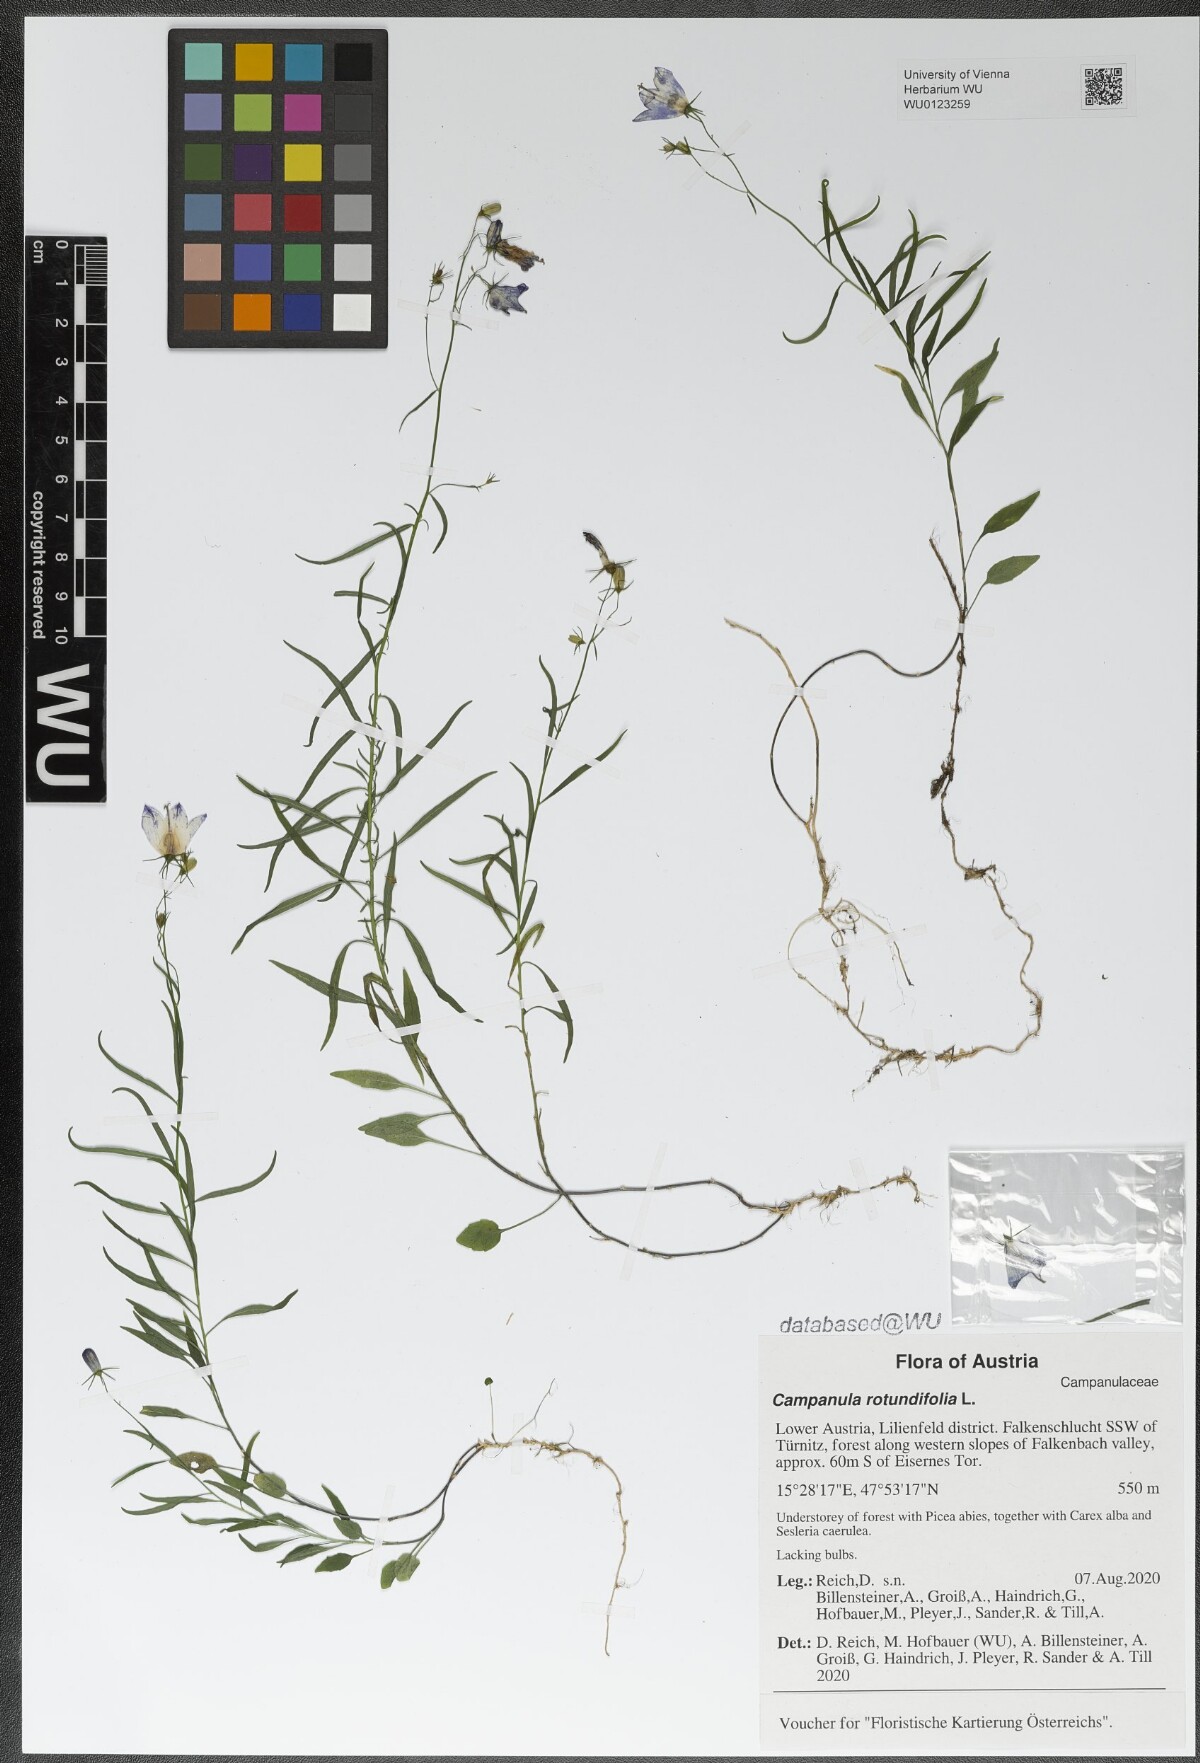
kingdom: Plantae
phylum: Tracheophyta
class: Magnoliopsida
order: Asterales
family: Campanulaceae
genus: Campanula
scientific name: Campanula rotundifolia
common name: Harebell
